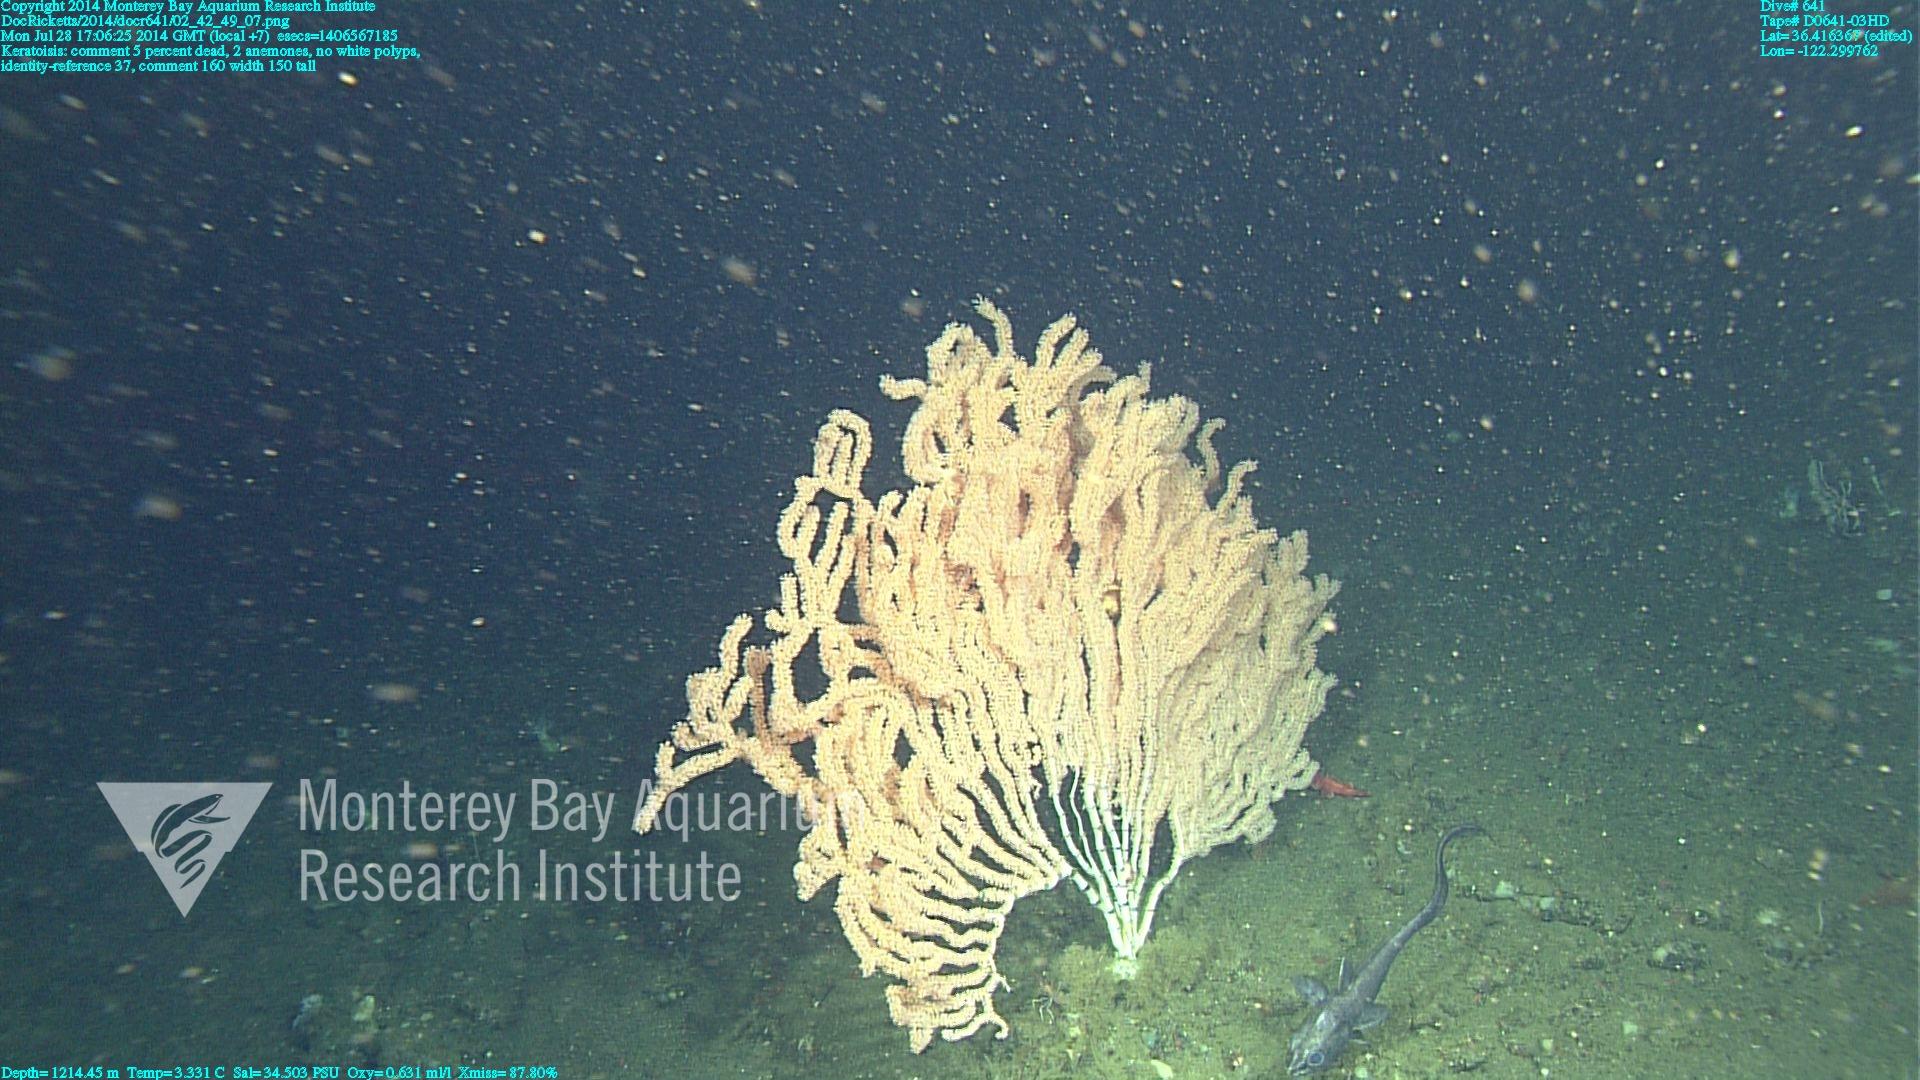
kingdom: Animalia
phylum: Cnidaria
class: Anthozoa
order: Scleralcyonacea
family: Keratoisididae
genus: Keratoisis
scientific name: Keratoisis
